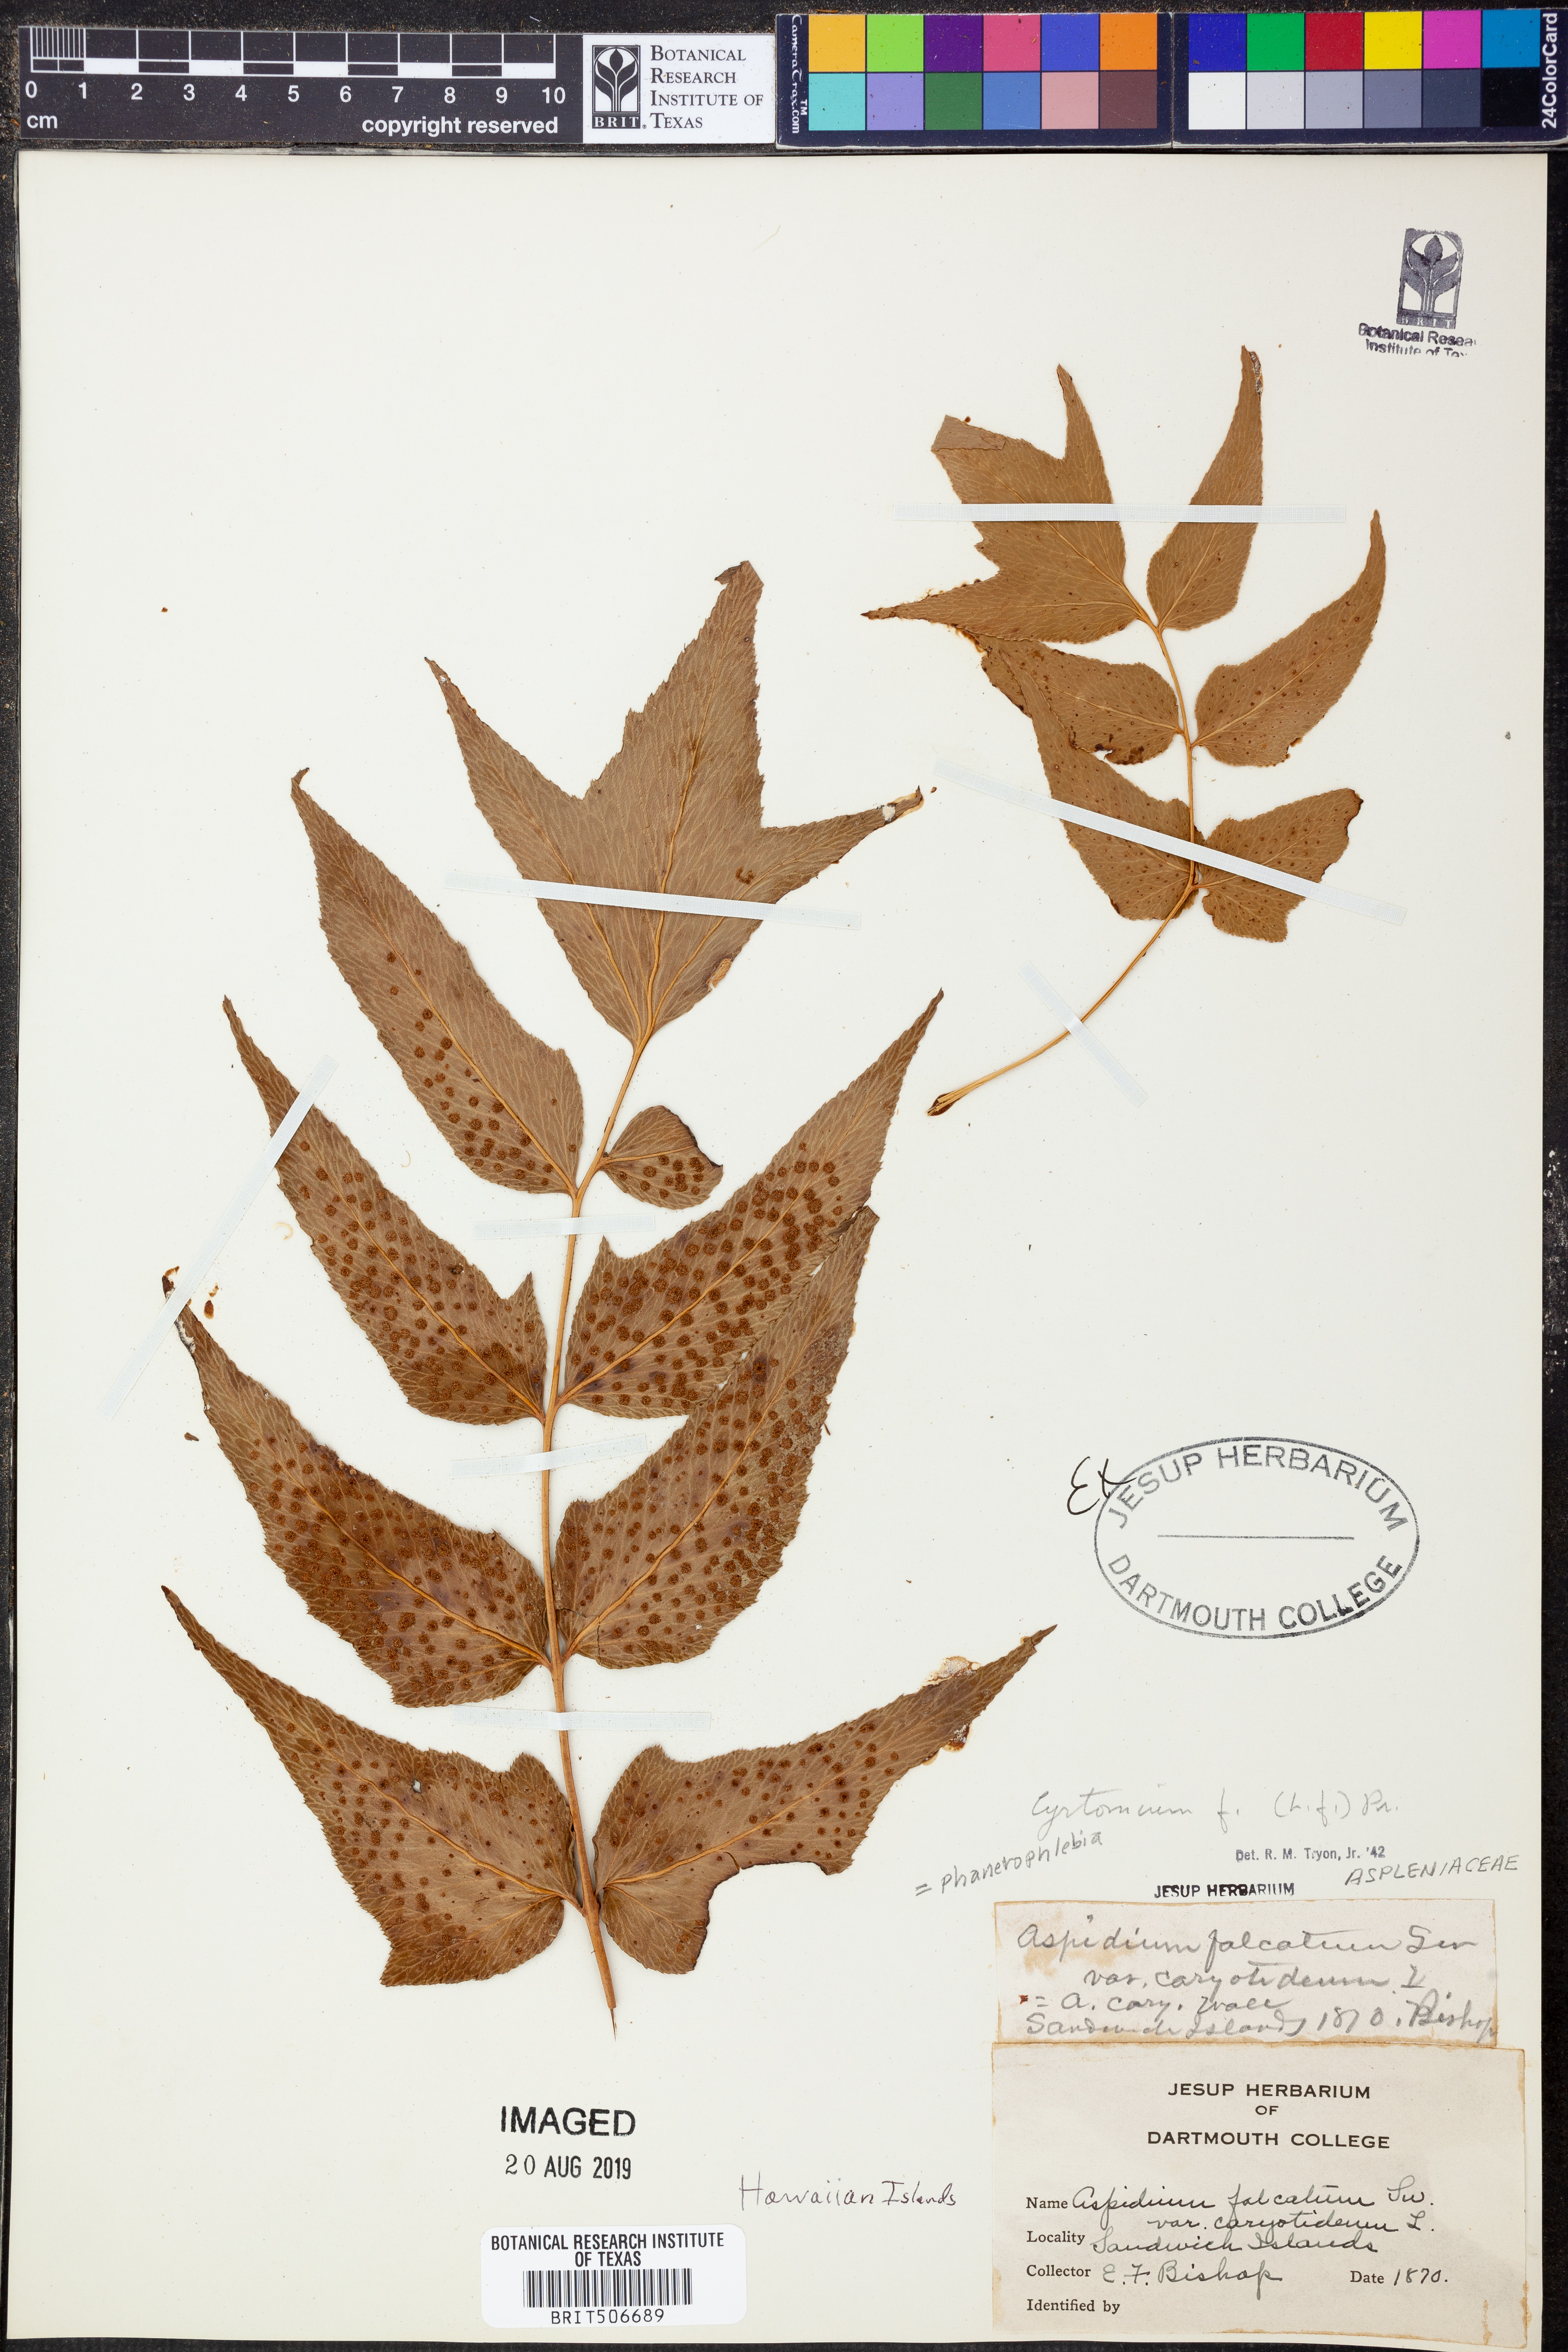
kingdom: Plantae
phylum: Tracheophyta
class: Polypodiopsida
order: Polypodiales
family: Dryopteridaceae
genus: Cyrtomium
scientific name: Cyrtomium falcatum
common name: House holly-fern
